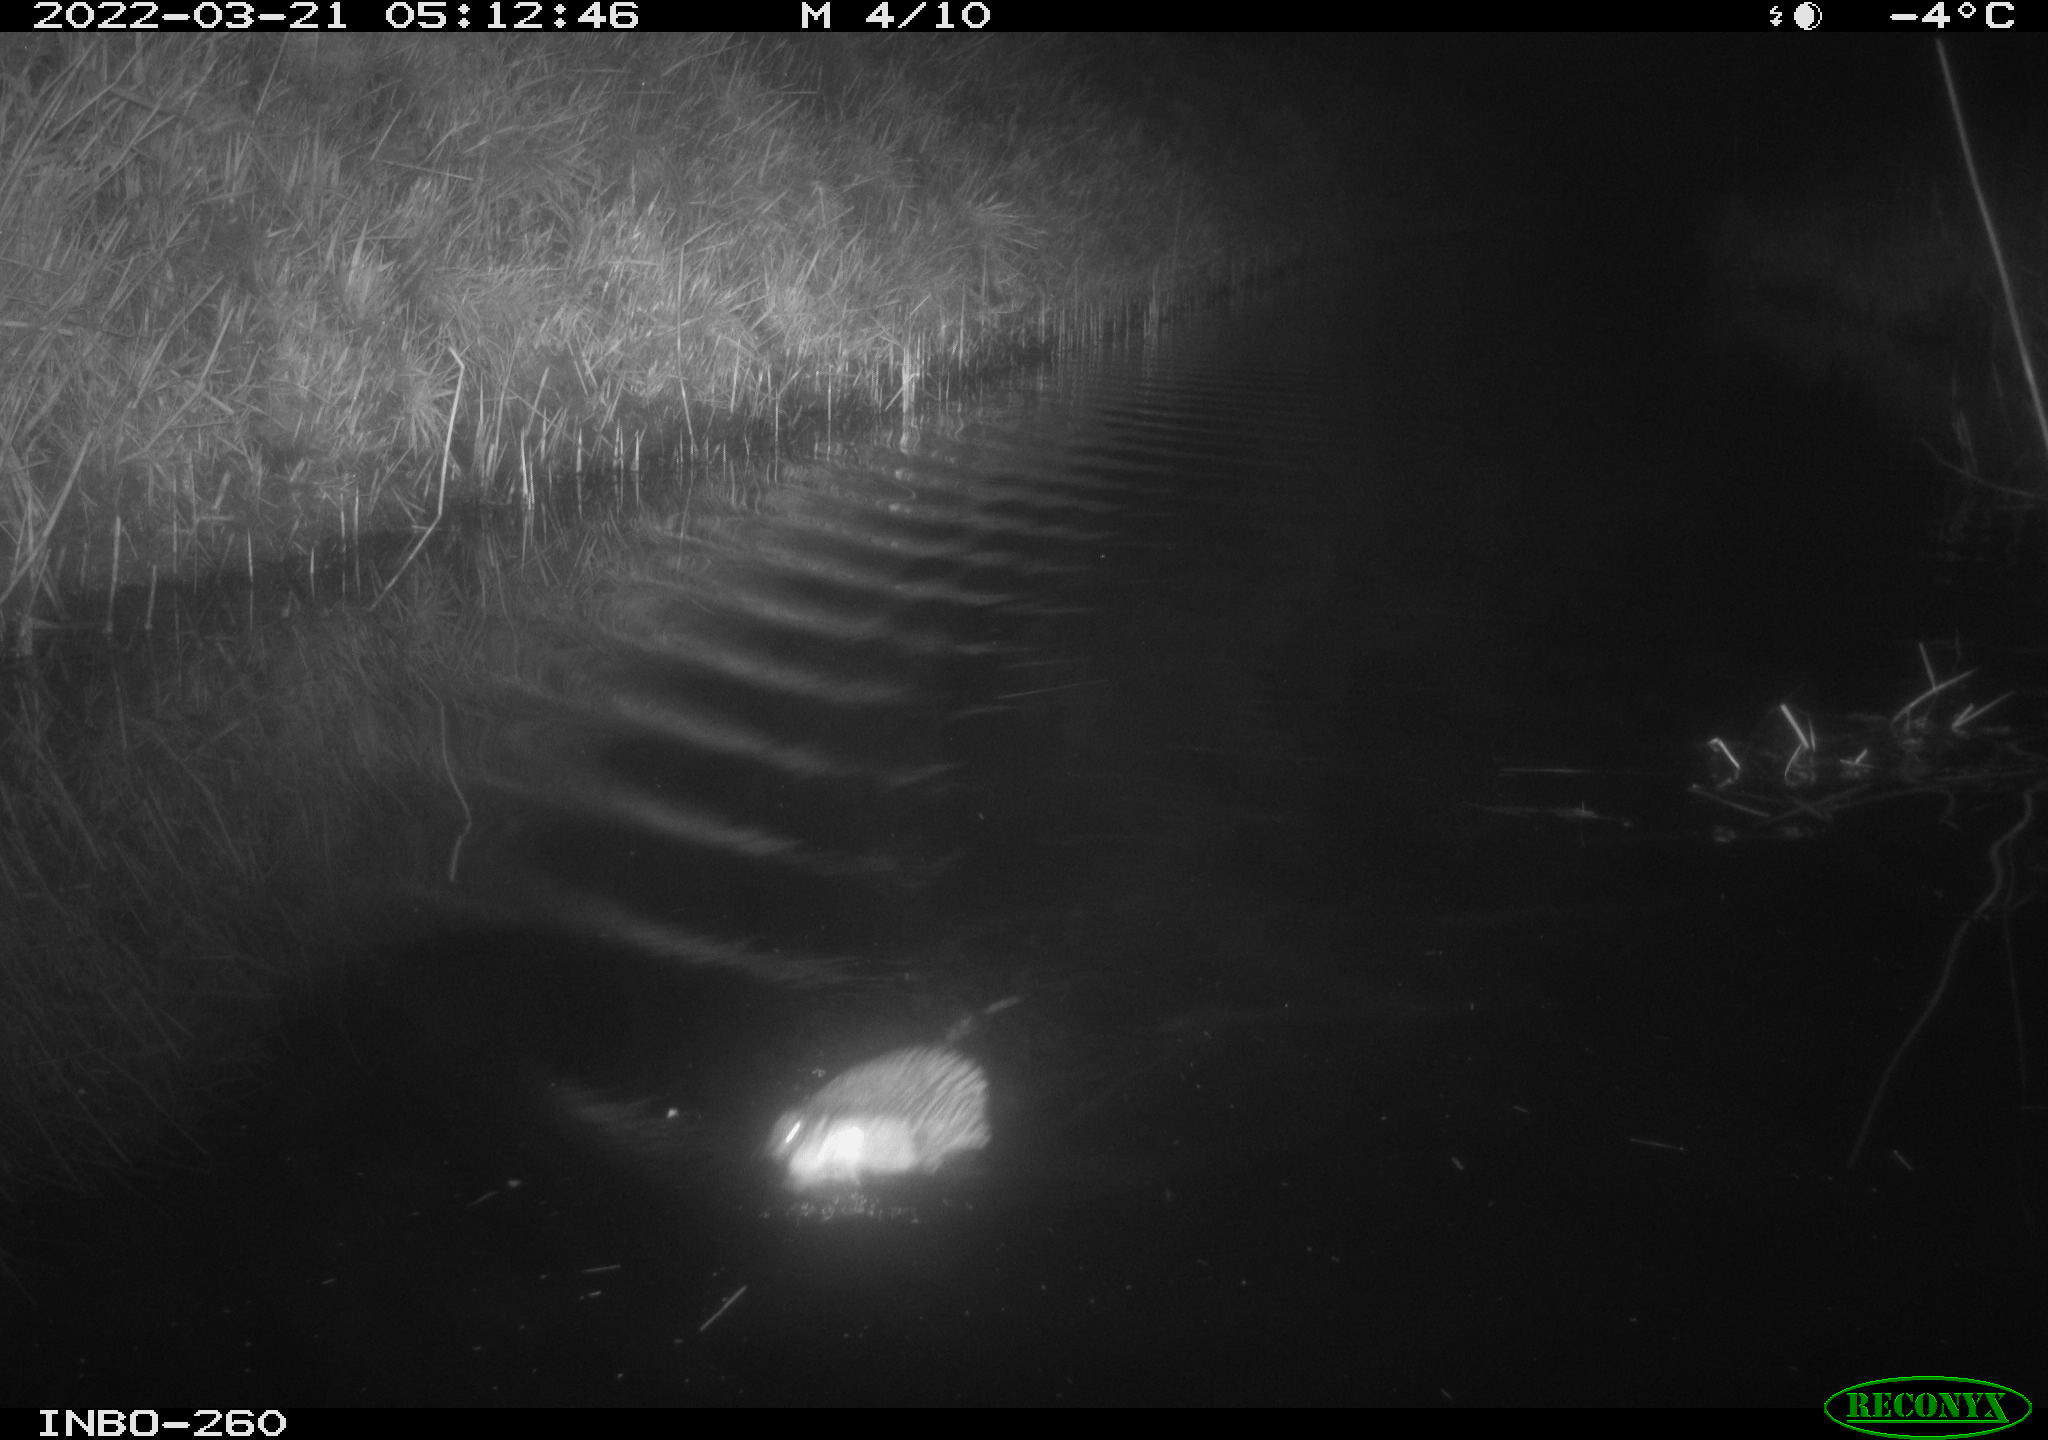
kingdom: Animalia
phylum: Chordata
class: Mammalia
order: Rodentia
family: Cricetidae
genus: Ondatra
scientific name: Ondatra zibethicus
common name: Muskrat
